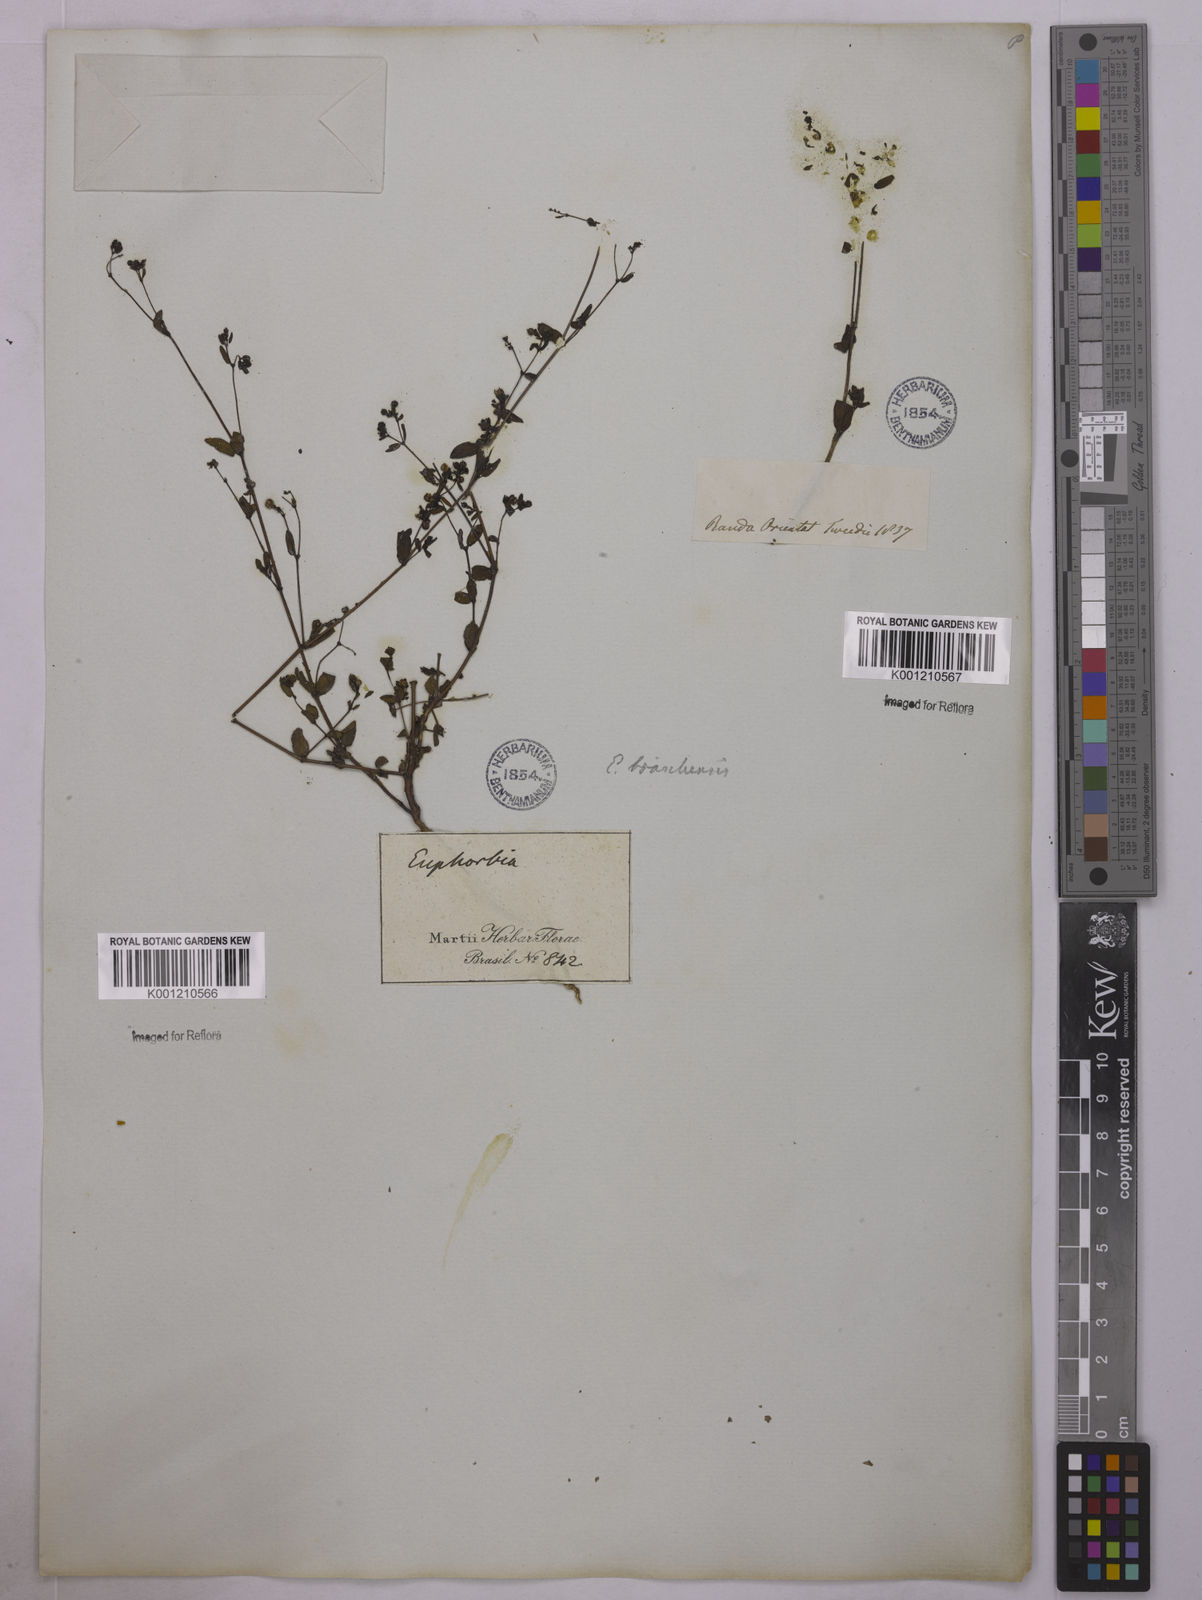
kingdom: Plantae
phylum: Tracheophyta
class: Magnoliopsida
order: Malpighiales
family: Euphorbiaceae
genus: Euphorbia
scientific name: Euphorbia hyssopifolia
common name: Hyssopleaf sandmat
